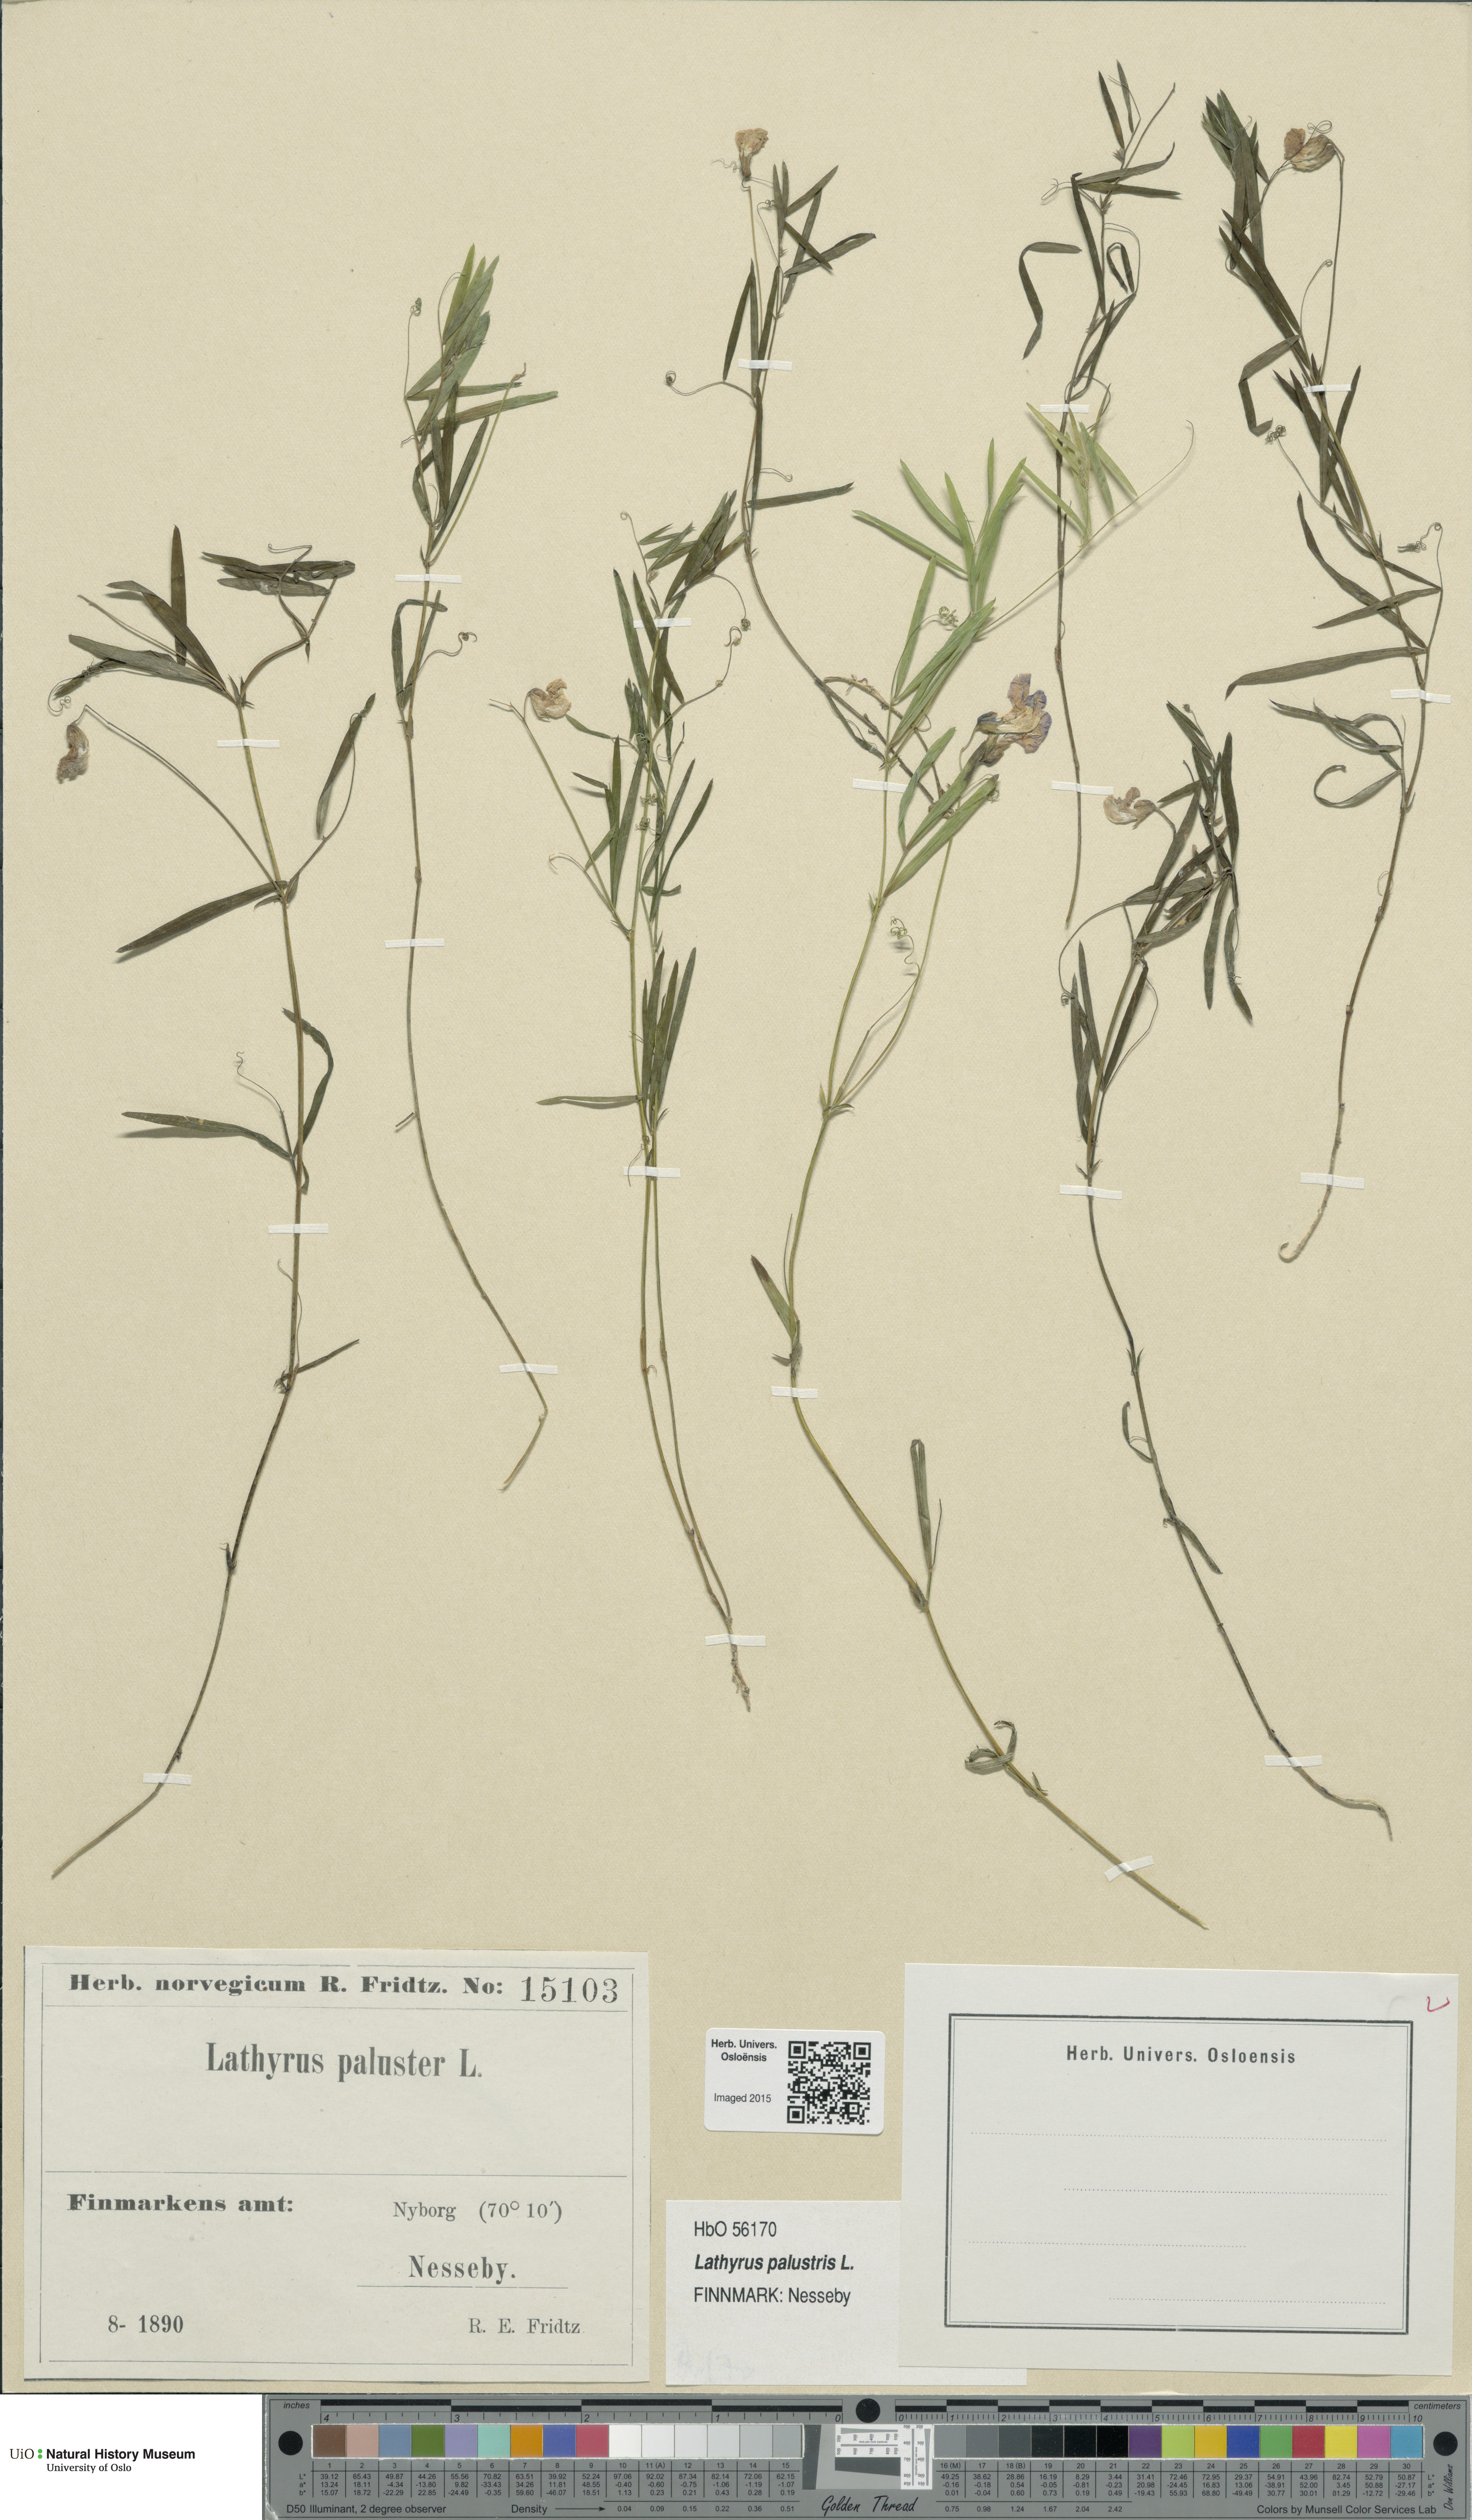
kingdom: Plantae
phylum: Tracheophyta
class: Magnoliopsida
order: Fabales
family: Fabaceae
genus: Lathyrus
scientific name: Lathyrus palustris
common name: Marsh pea
